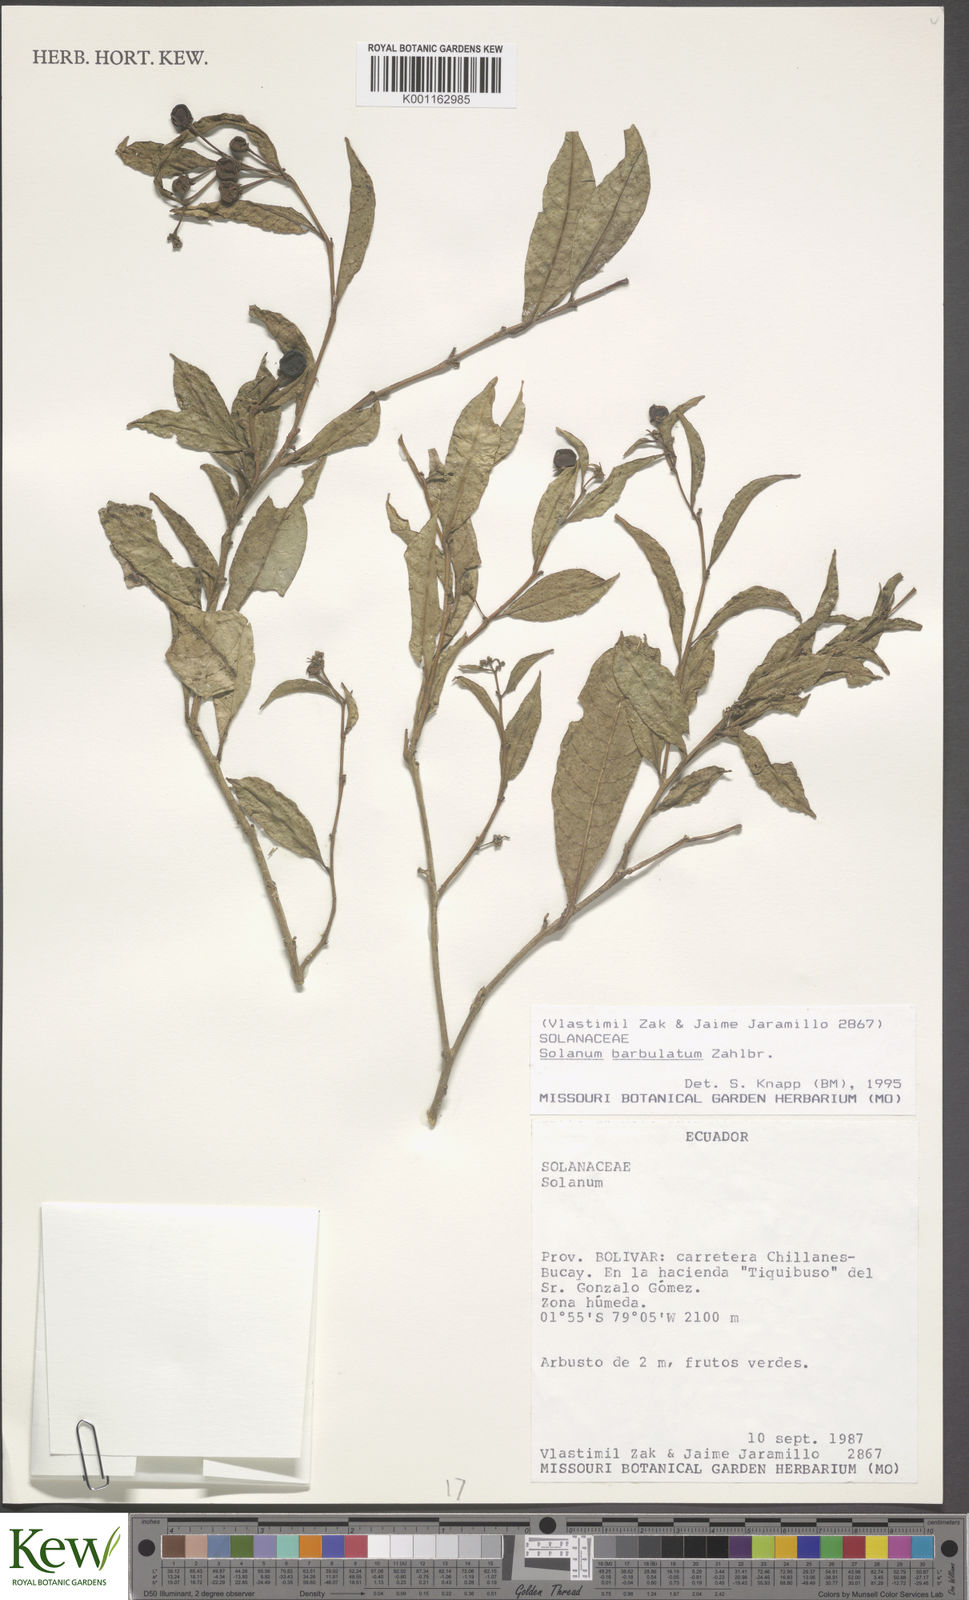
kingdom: Plantae
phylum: Tracheophyta
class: Magnoliopsida
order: Solanales
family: Solanaceae
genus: Solanum
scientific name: Solanum barbulatum
